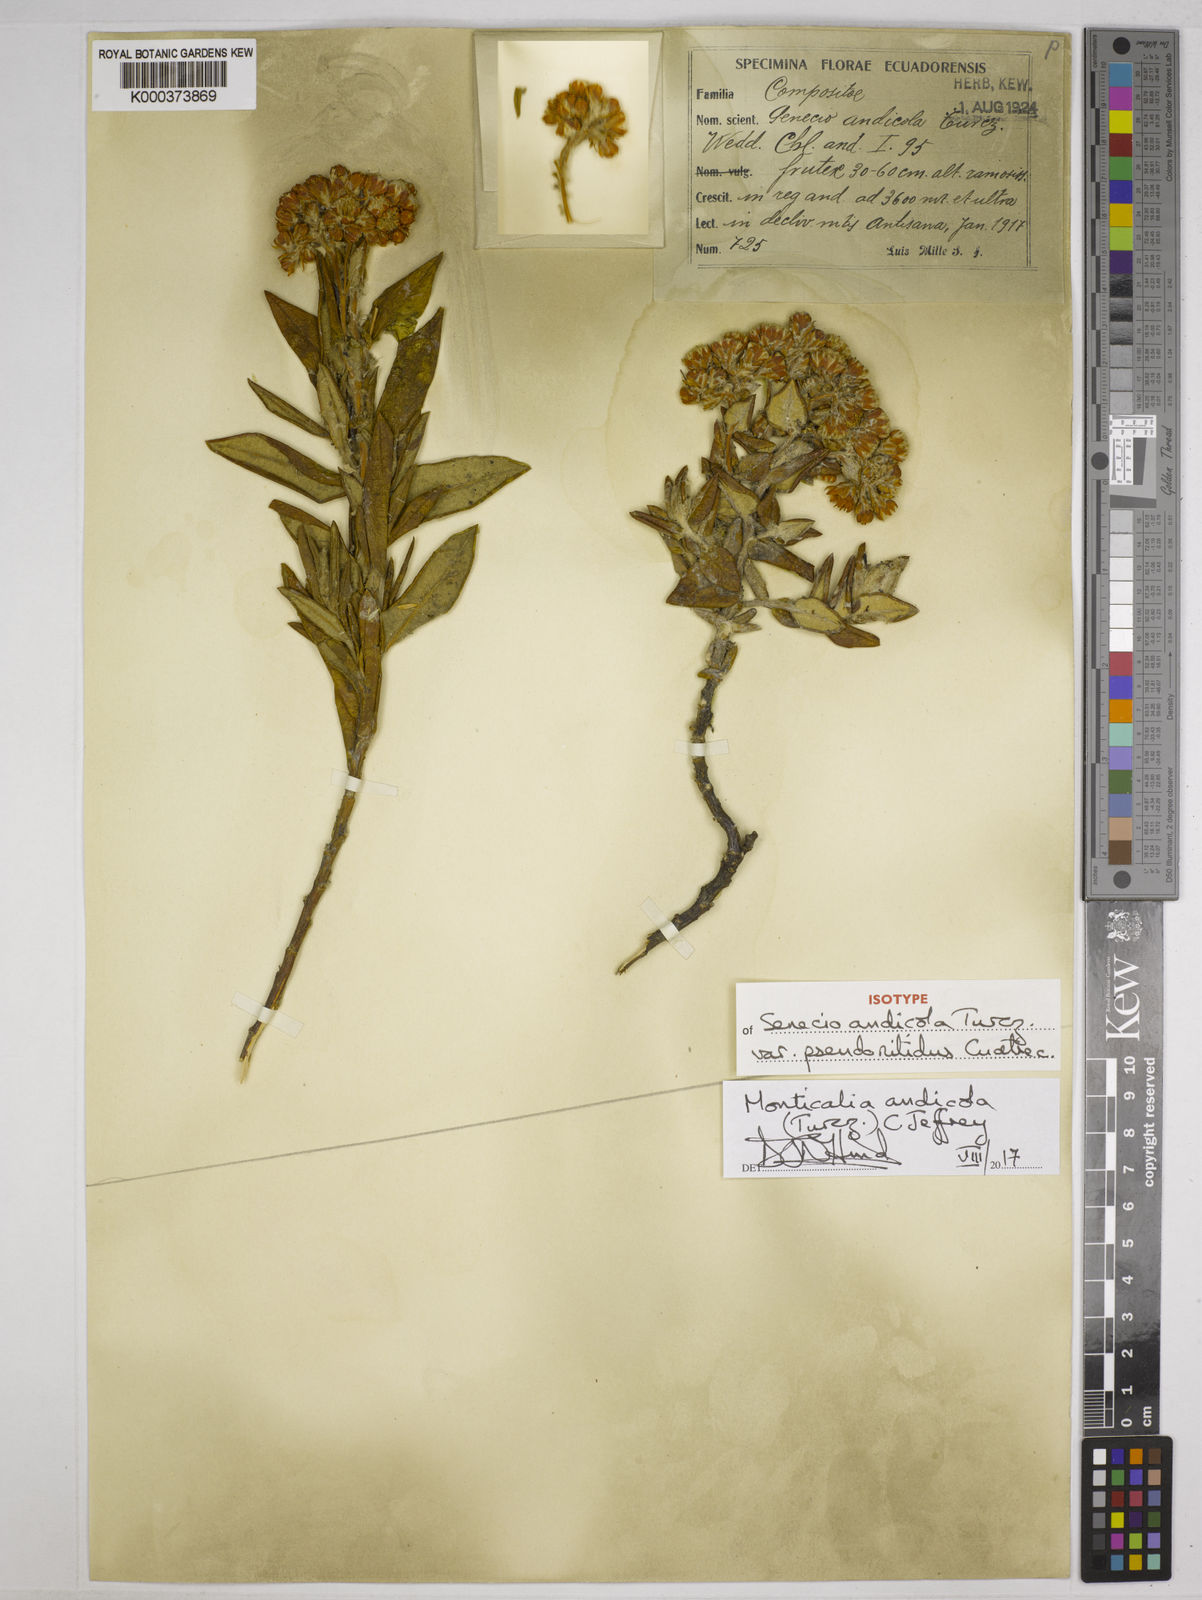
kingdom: Plantae
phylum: Tracheophyta
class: Magnoliopsida
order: Asterales
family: Asteraceae
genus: Monticalia
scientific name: Monticalia andicola
